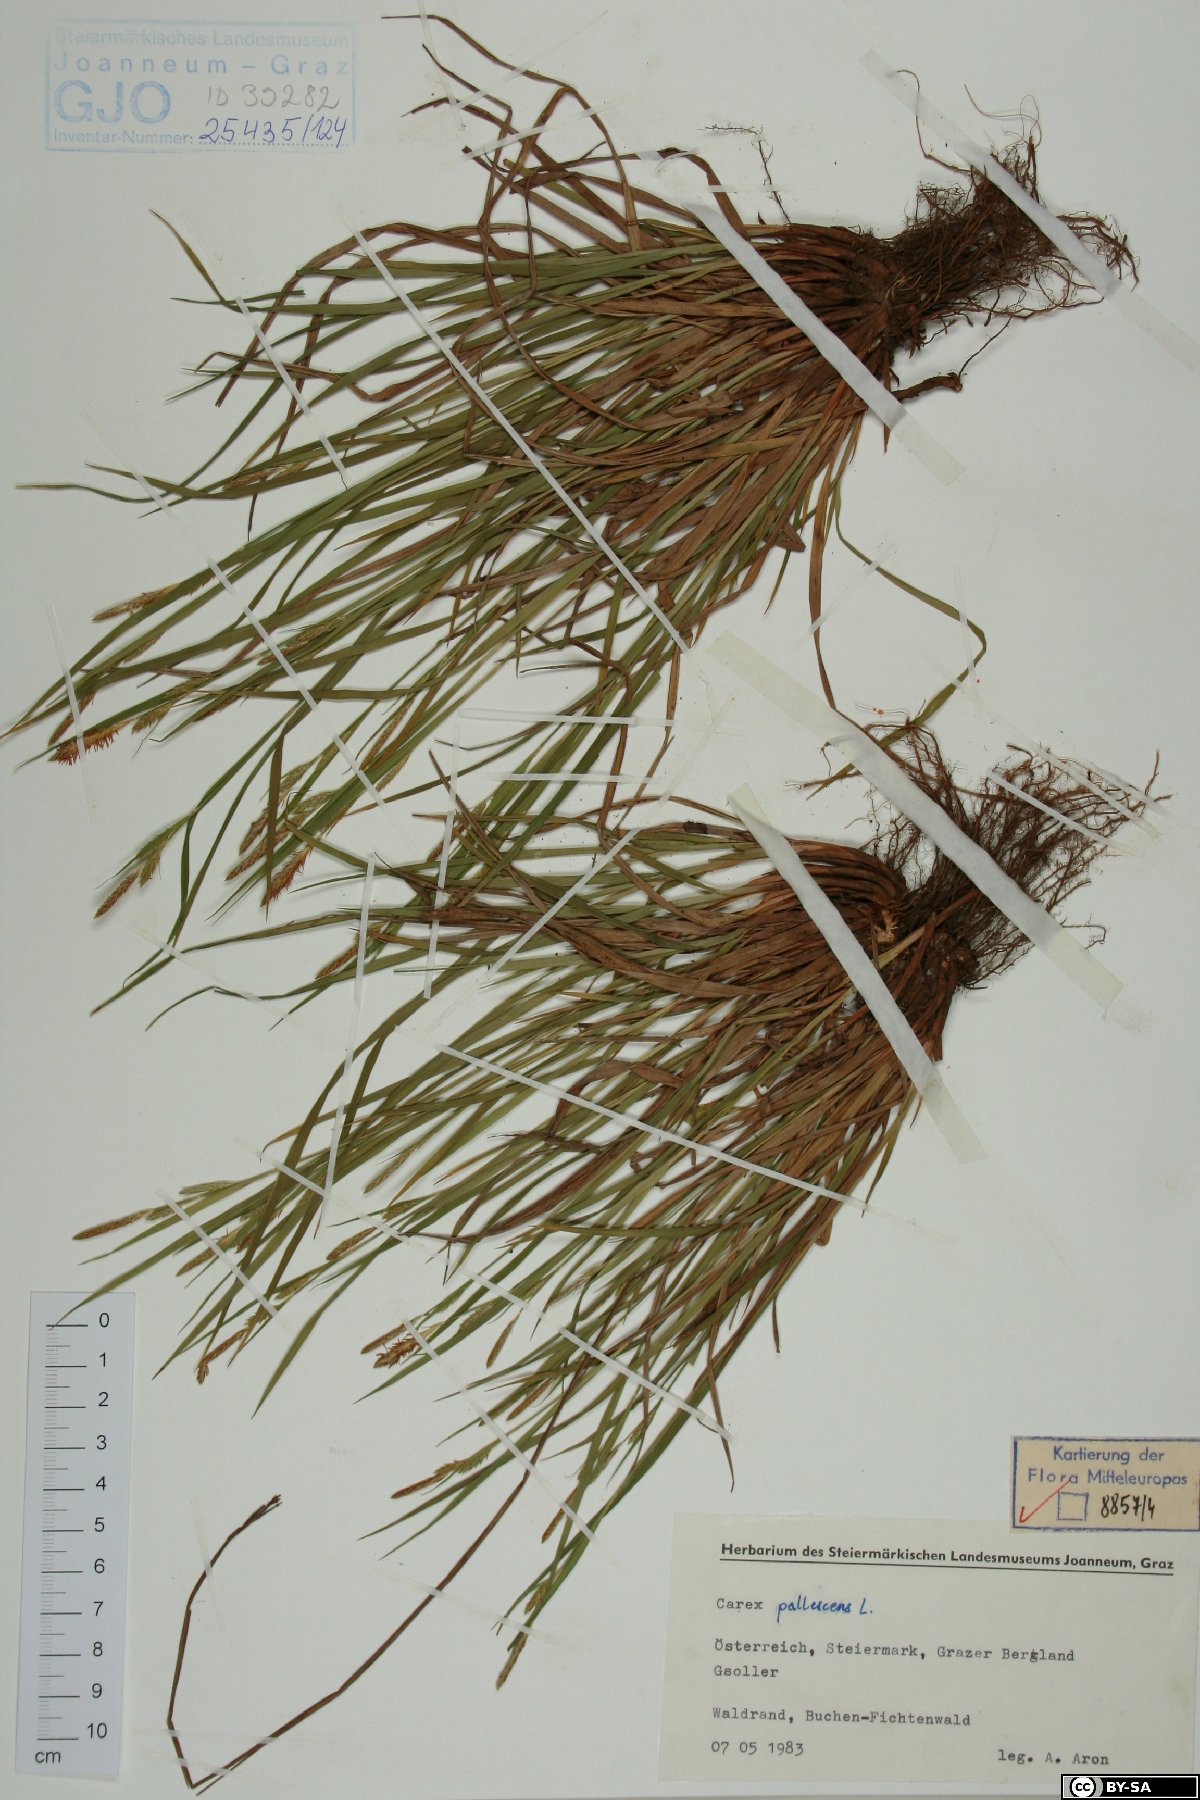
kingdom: Plantae
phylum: Tracheophyta
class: Liliopsida
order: Poales
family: Cyperaceae
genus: Carex
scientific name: Carex pallescens
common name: Pale sedge
